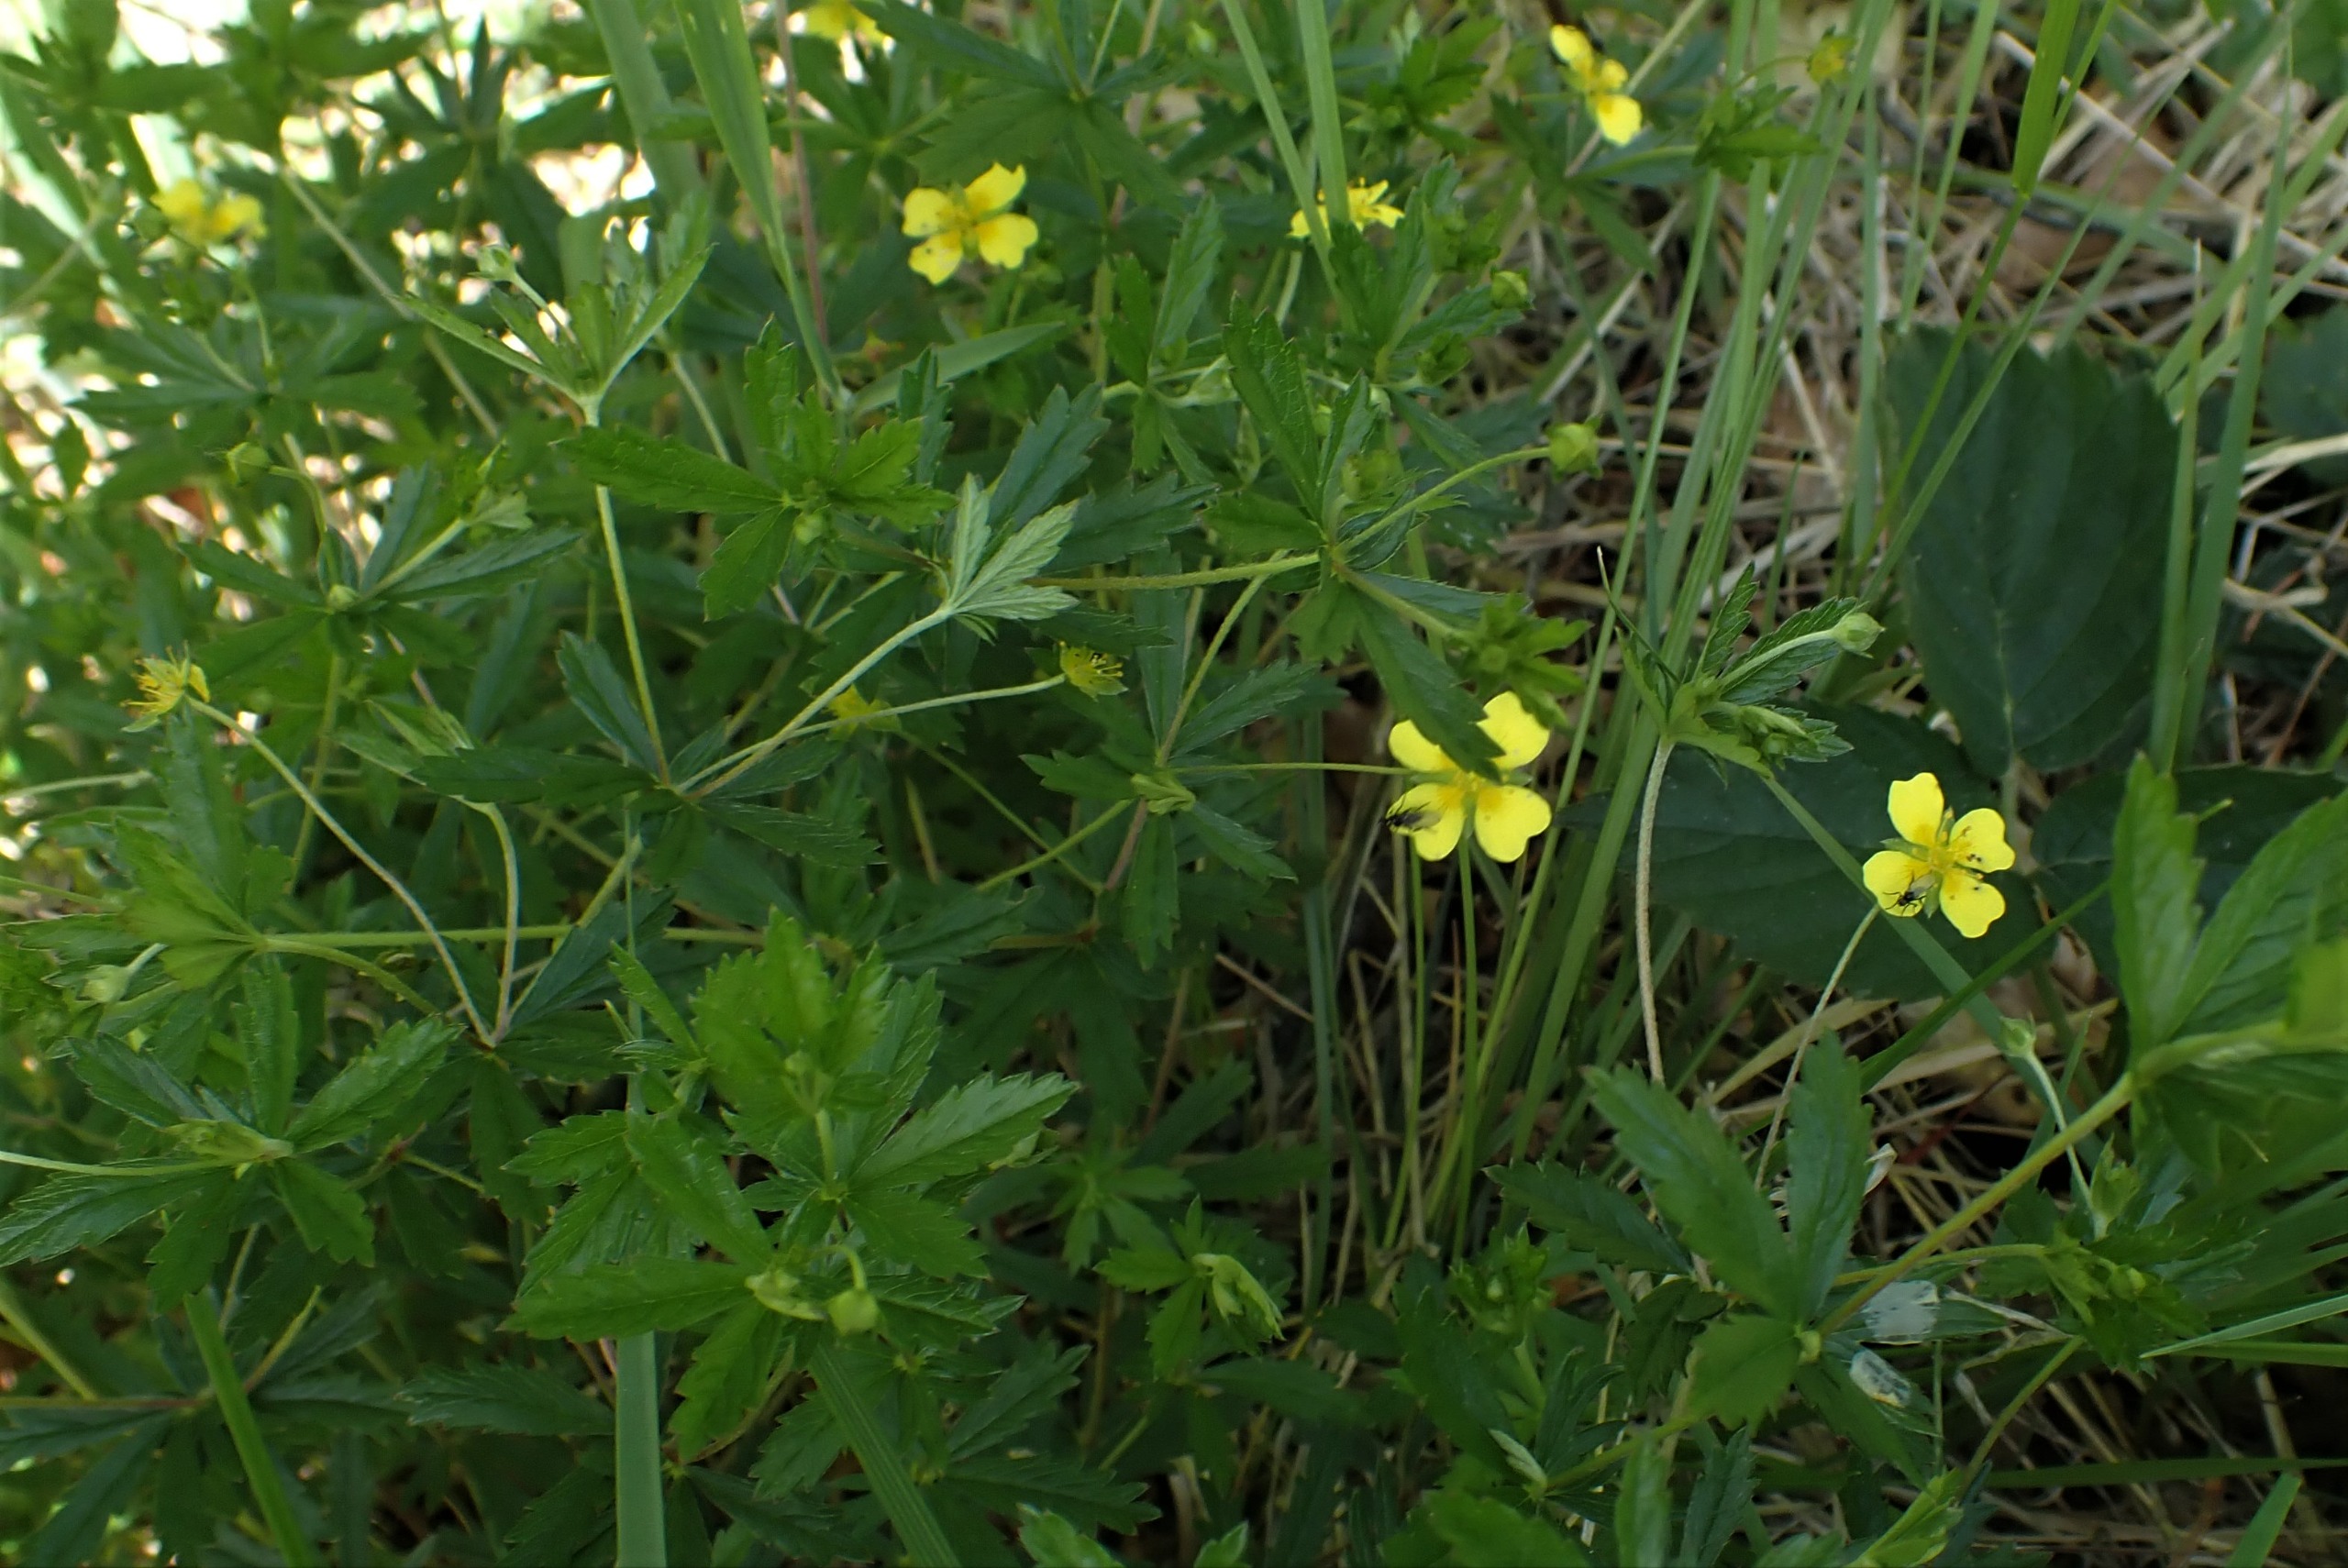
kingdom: Plantae
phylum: Tracheophyta
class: Magnoliopsida
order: Rosales
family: Rosaceae
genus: Potentilla
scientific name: Potentilla erecta
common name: Tormentil
